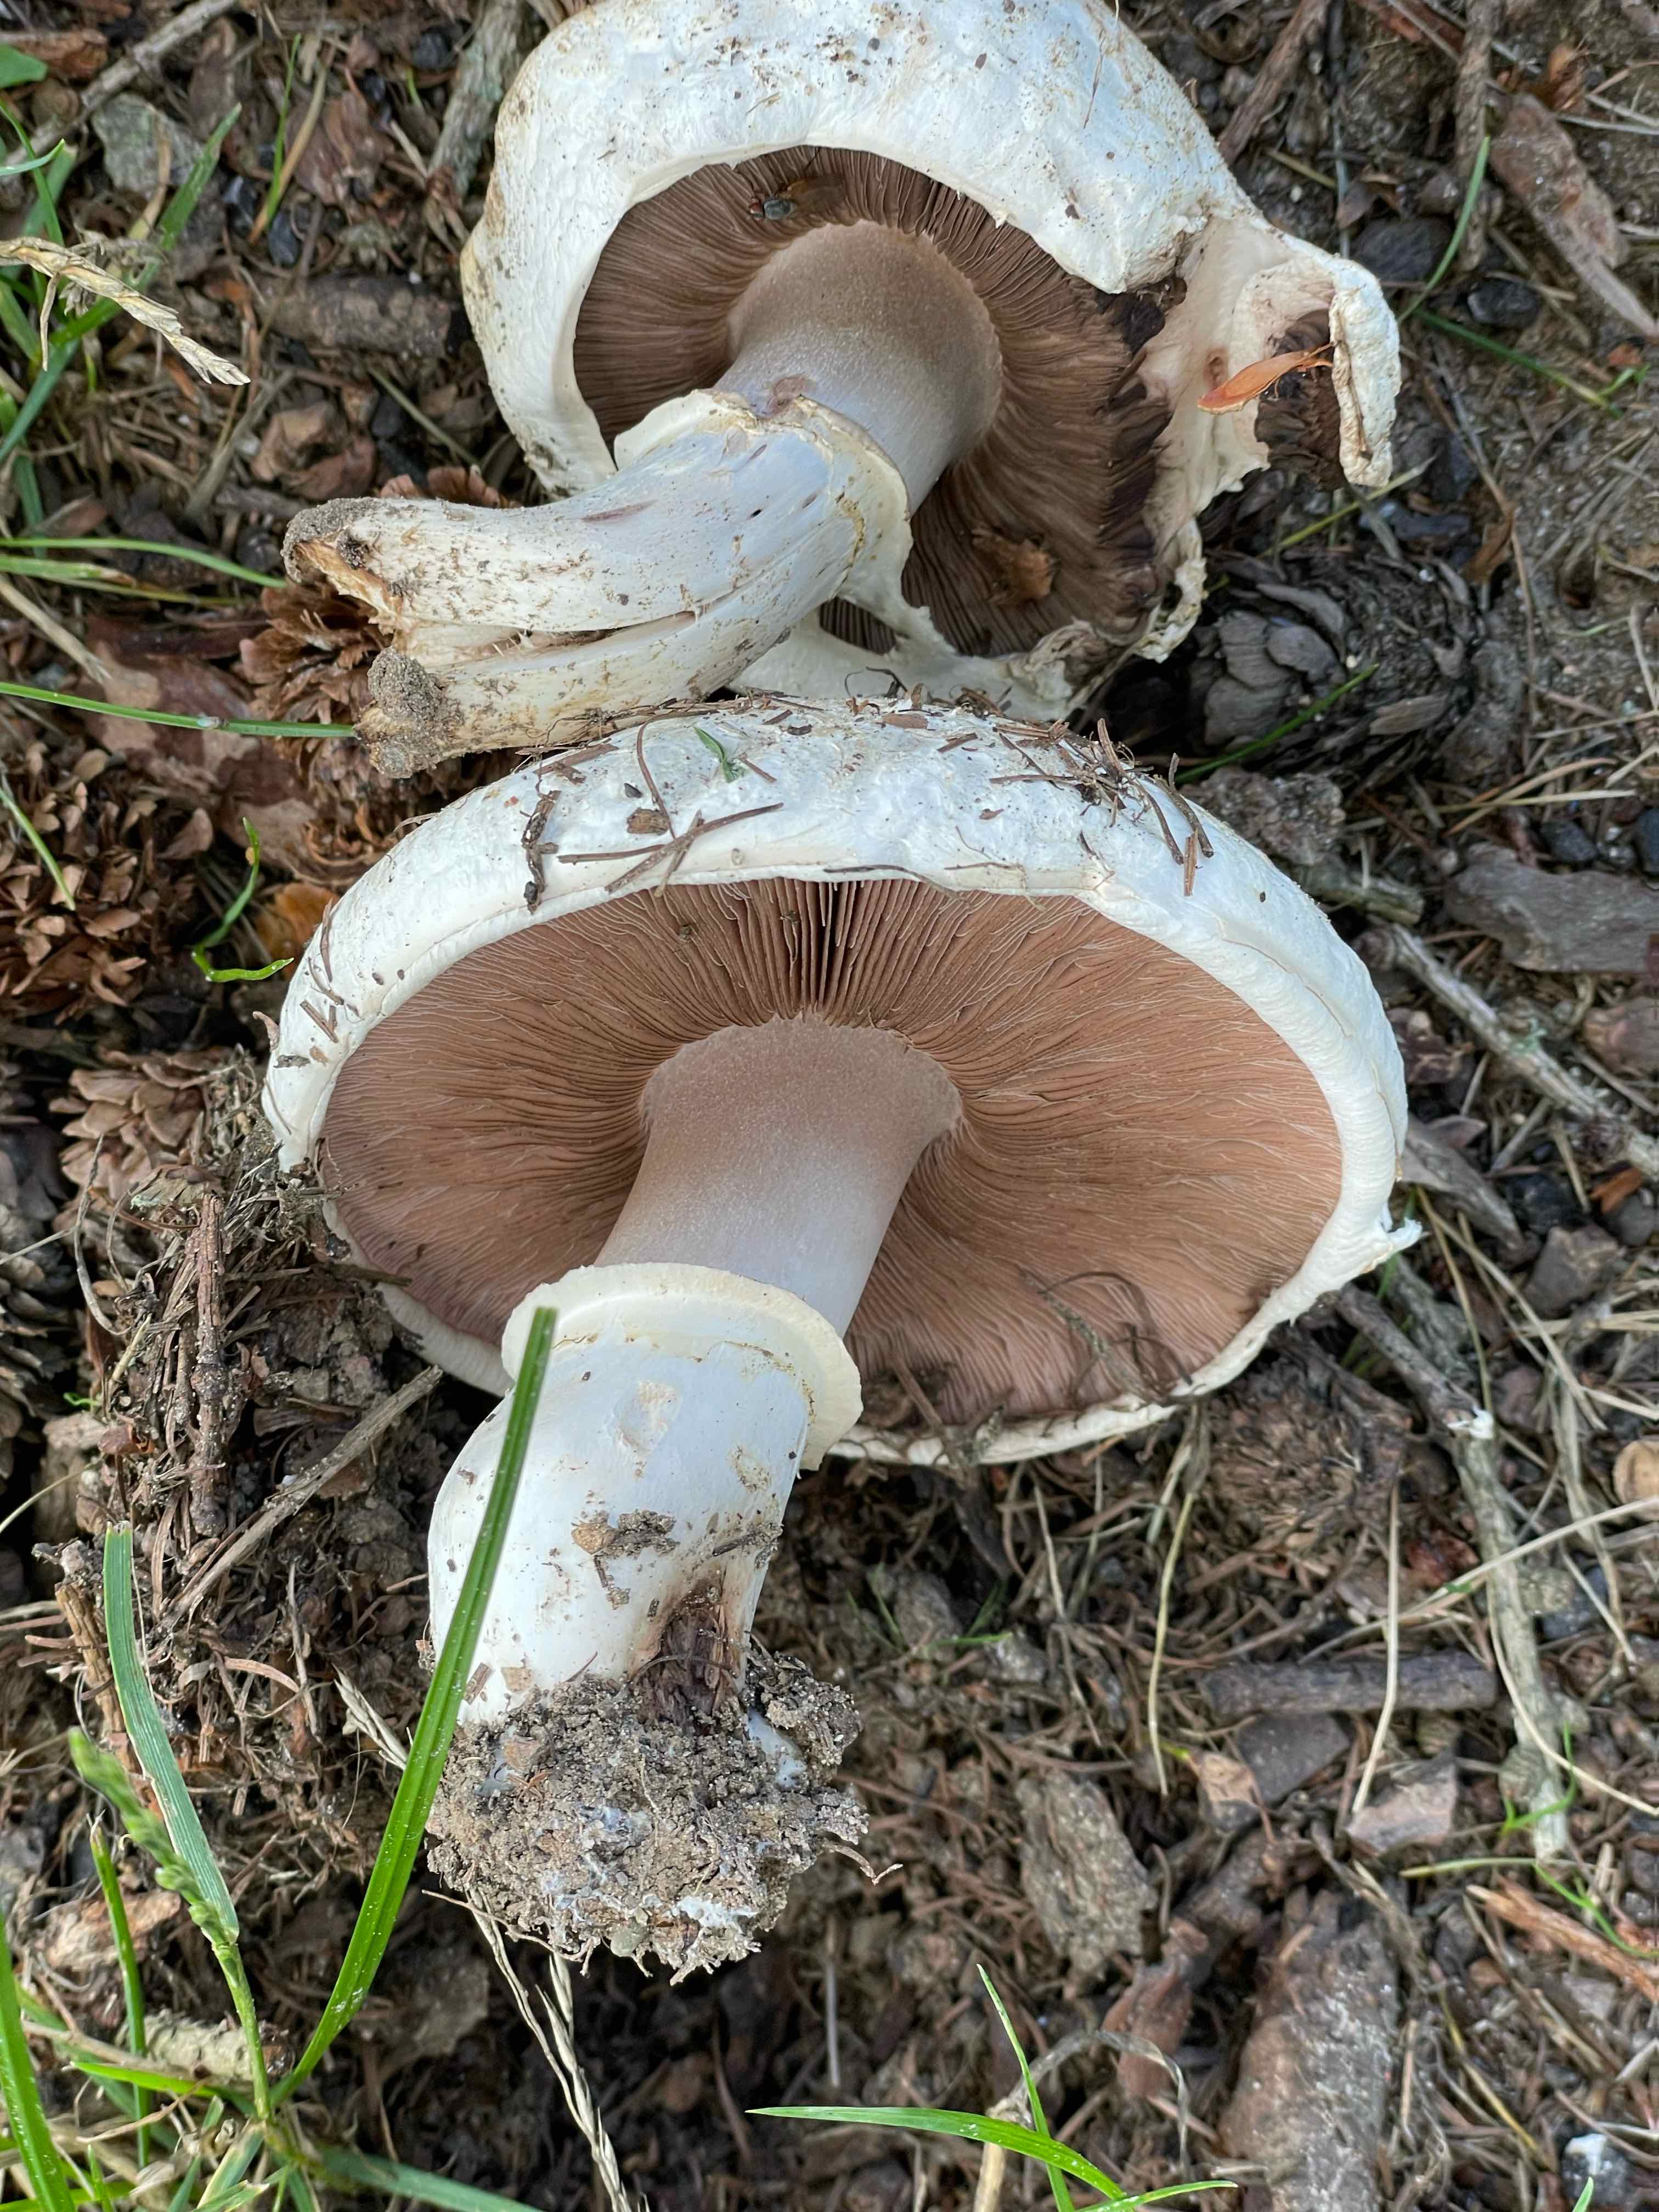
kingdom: Fungi
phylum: Basidiomycota
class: Agaricomycetes
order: Agaricales
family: Agaricaceae
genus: Agaricus
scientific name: Agaricus bernardii
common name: strandengs-champignon
